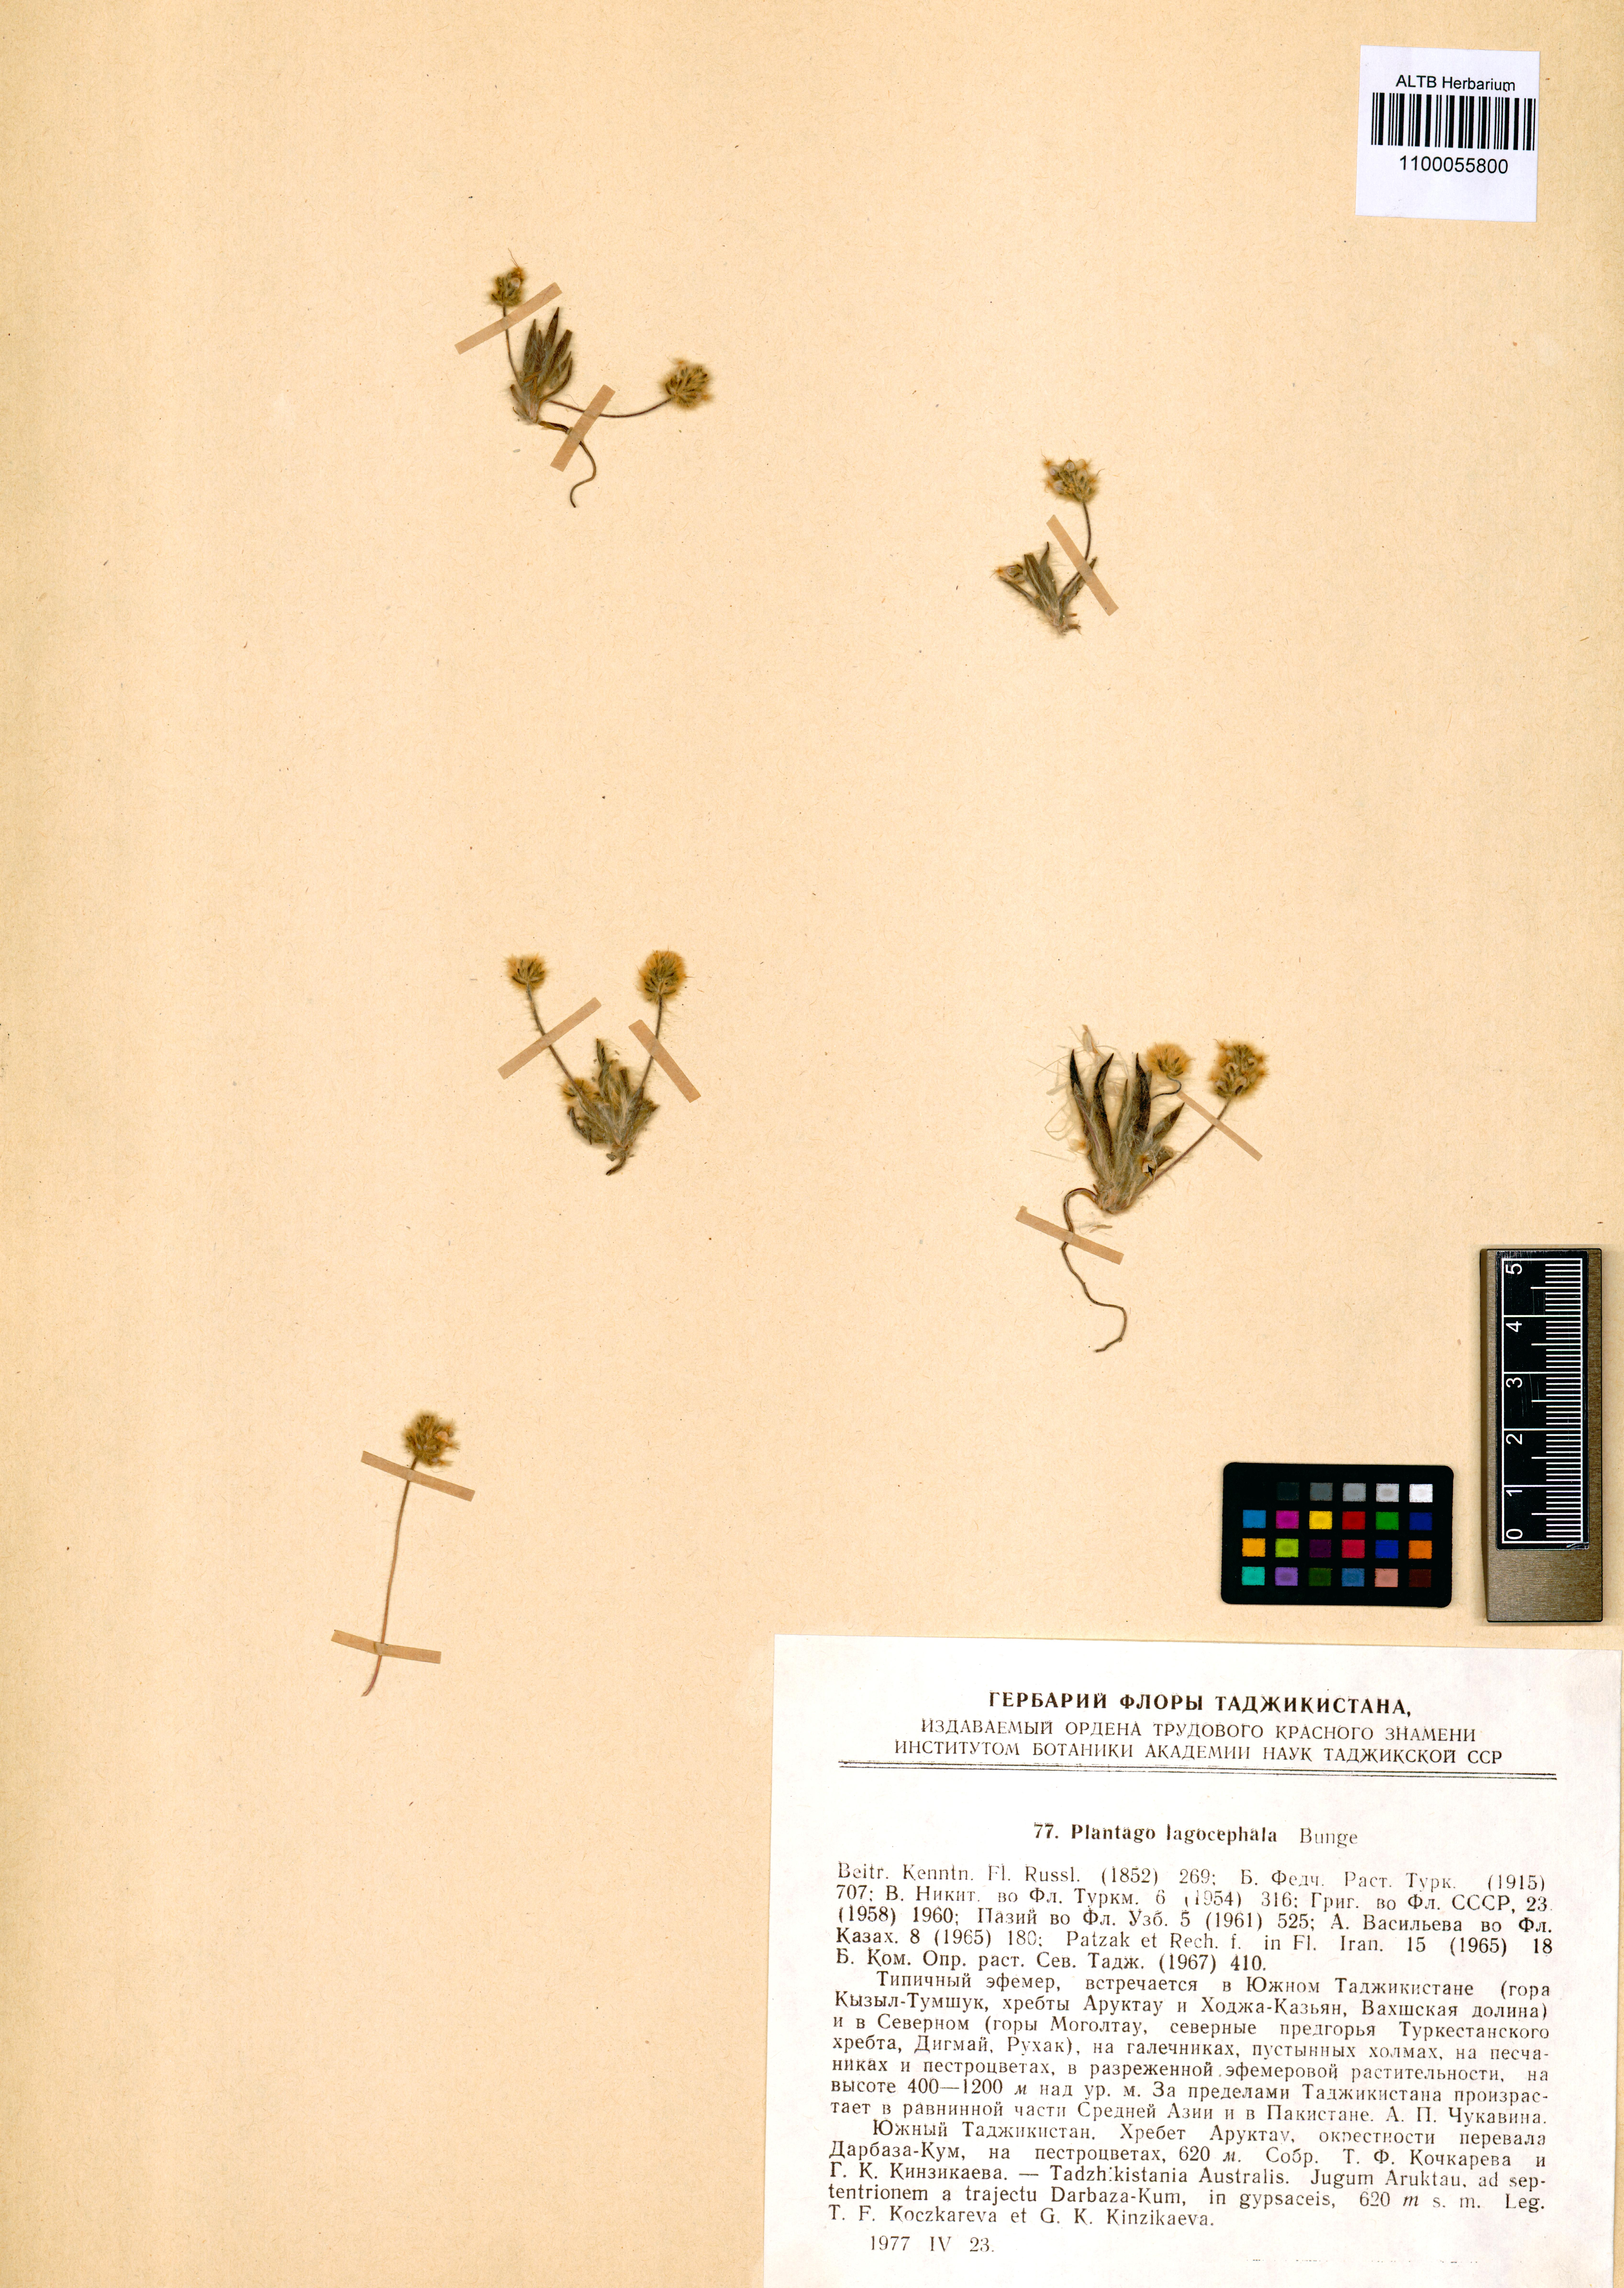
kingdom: Plantae
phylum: Tracheophyta
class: Magnoliopsida
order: Lamiales
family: Plantaginaceae
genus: Plantago
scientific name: Plantago lagocephala
